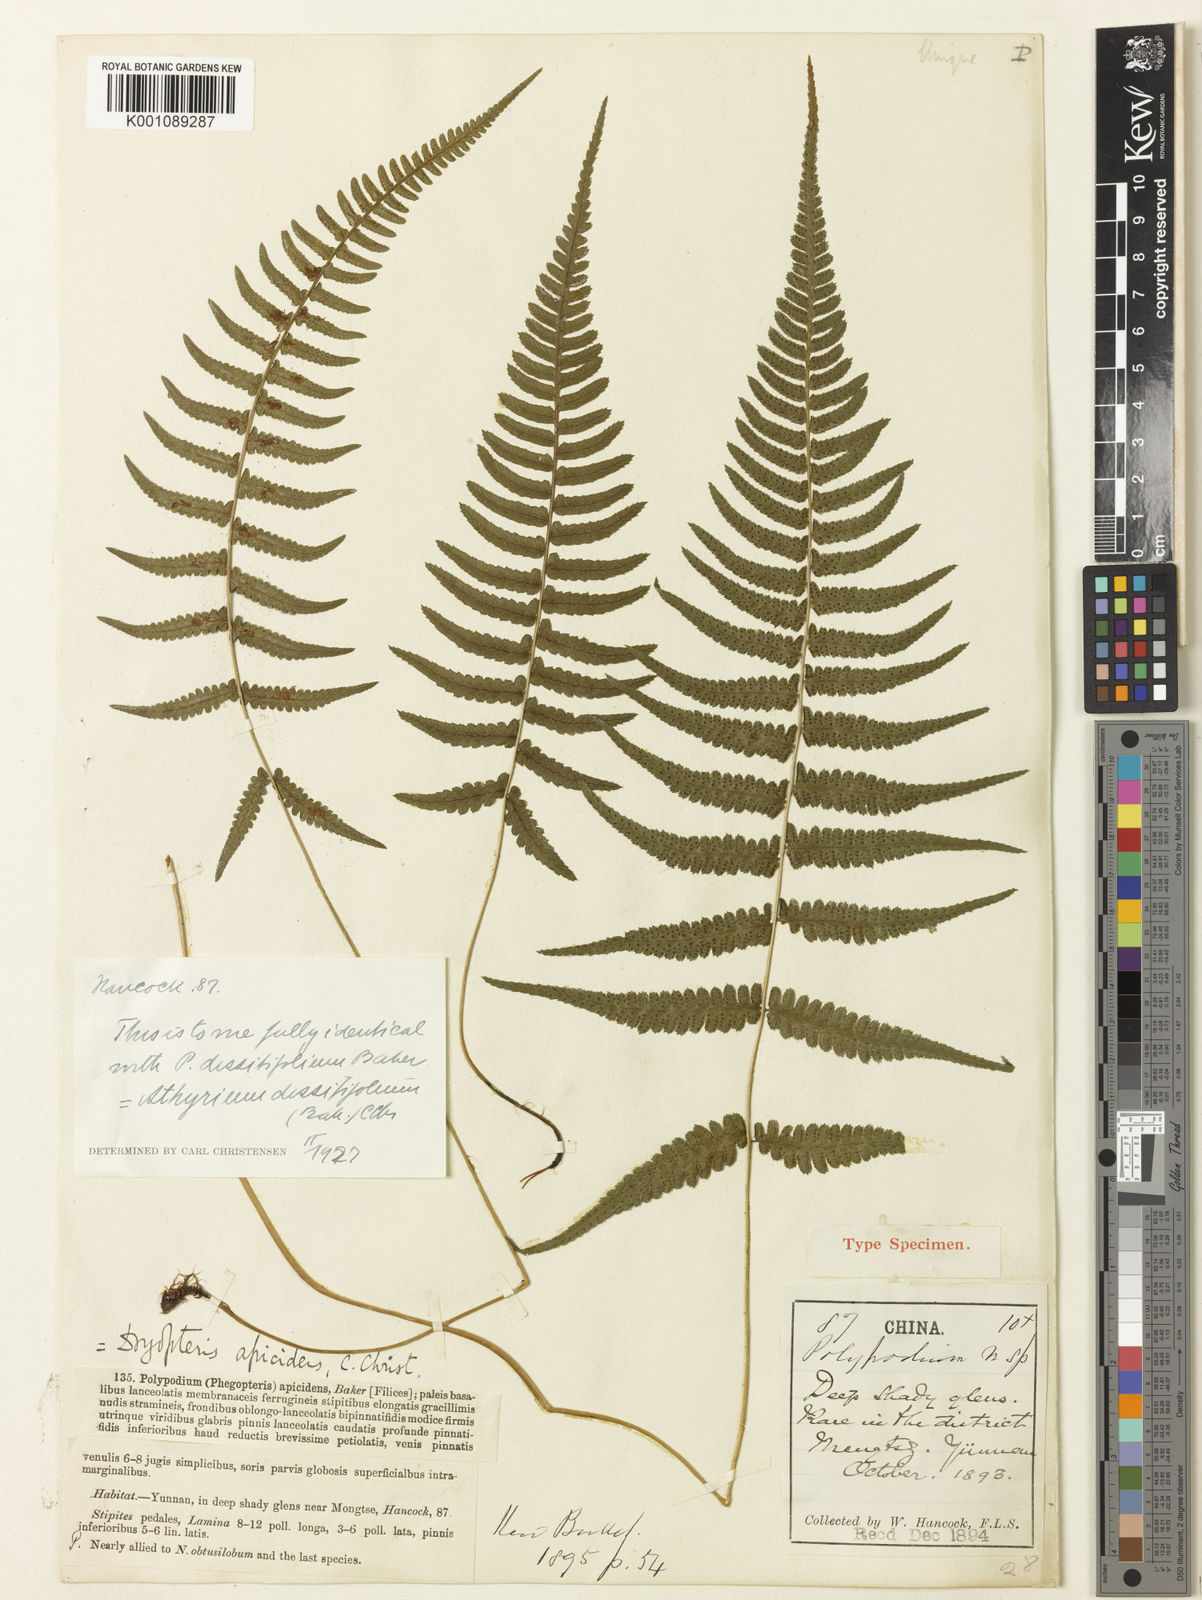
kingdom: Plantae
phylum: Tracheophyta
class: Polypodiopsida
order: Polypodiales
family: Athyriaceae
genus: Athyrium
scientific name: Athyrium dissitifolium
